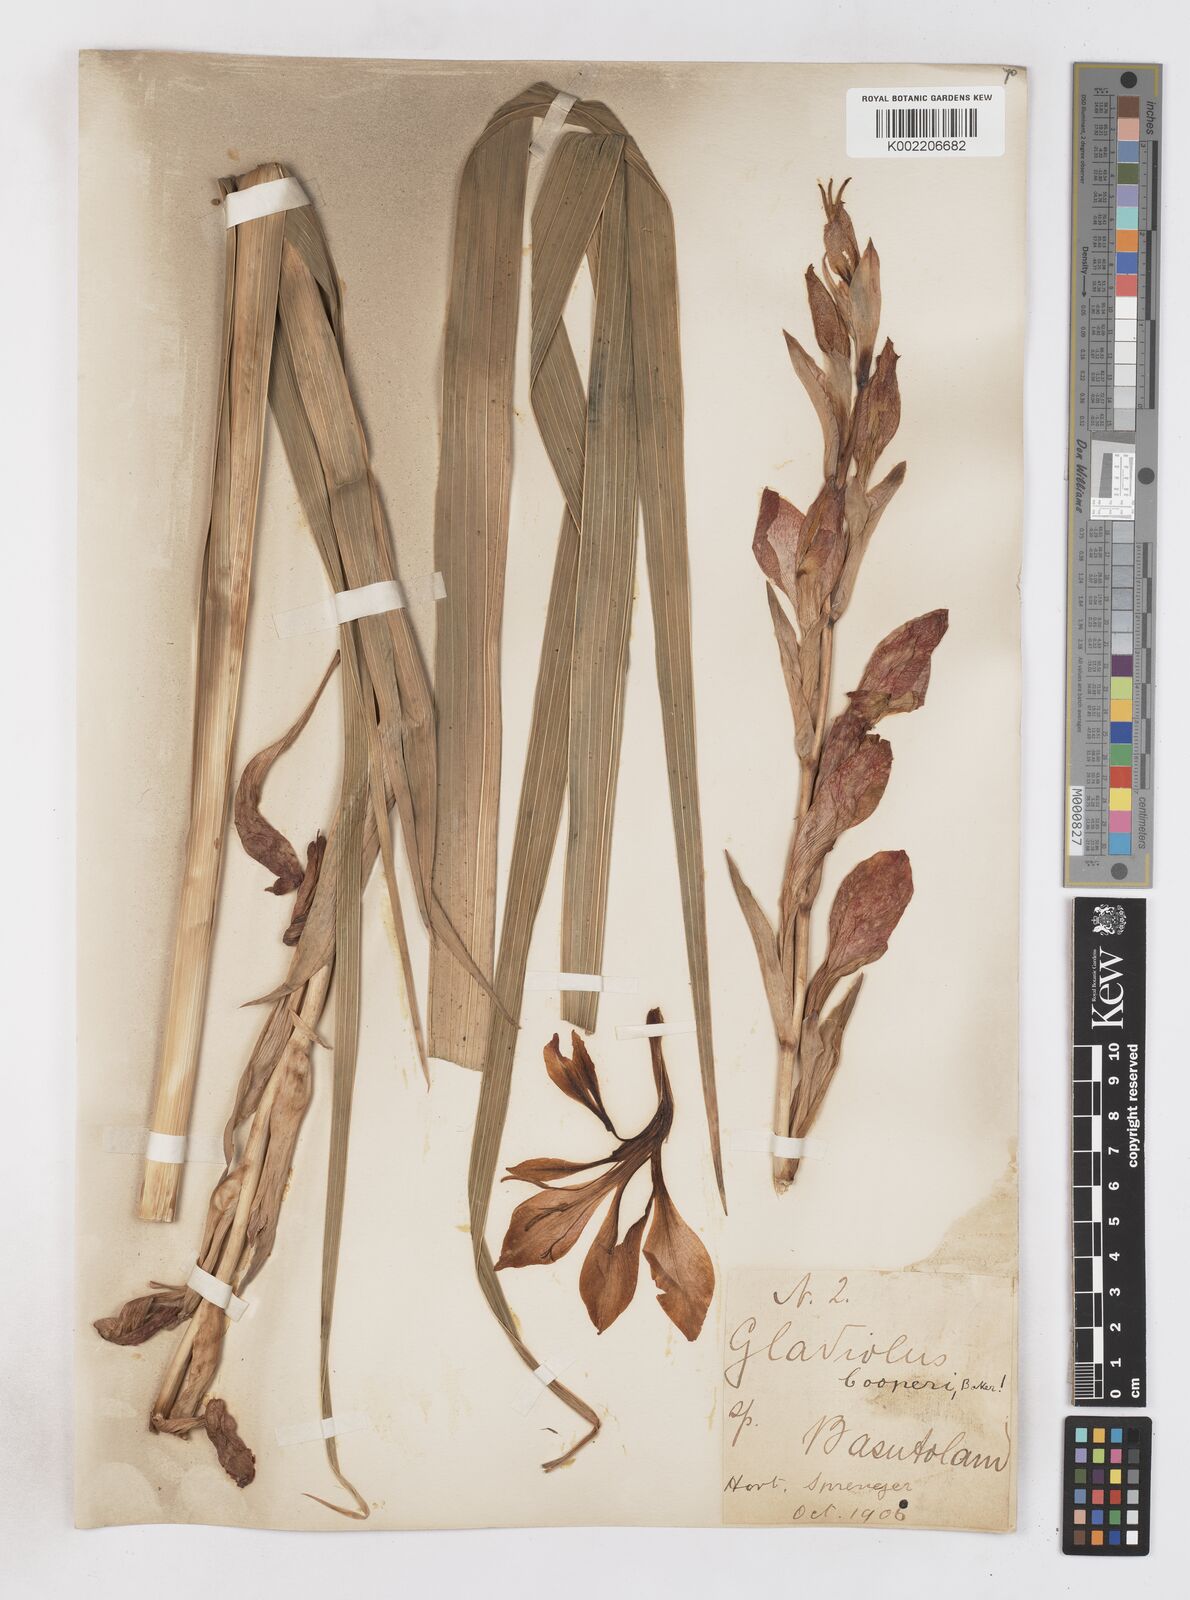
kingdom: Plantae
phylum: Tracheophyta
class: Liliopsida
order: Asparagales
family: Iridaceae
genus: Gladiolus
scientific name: Gladiolus dalenii
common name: Cornflag
